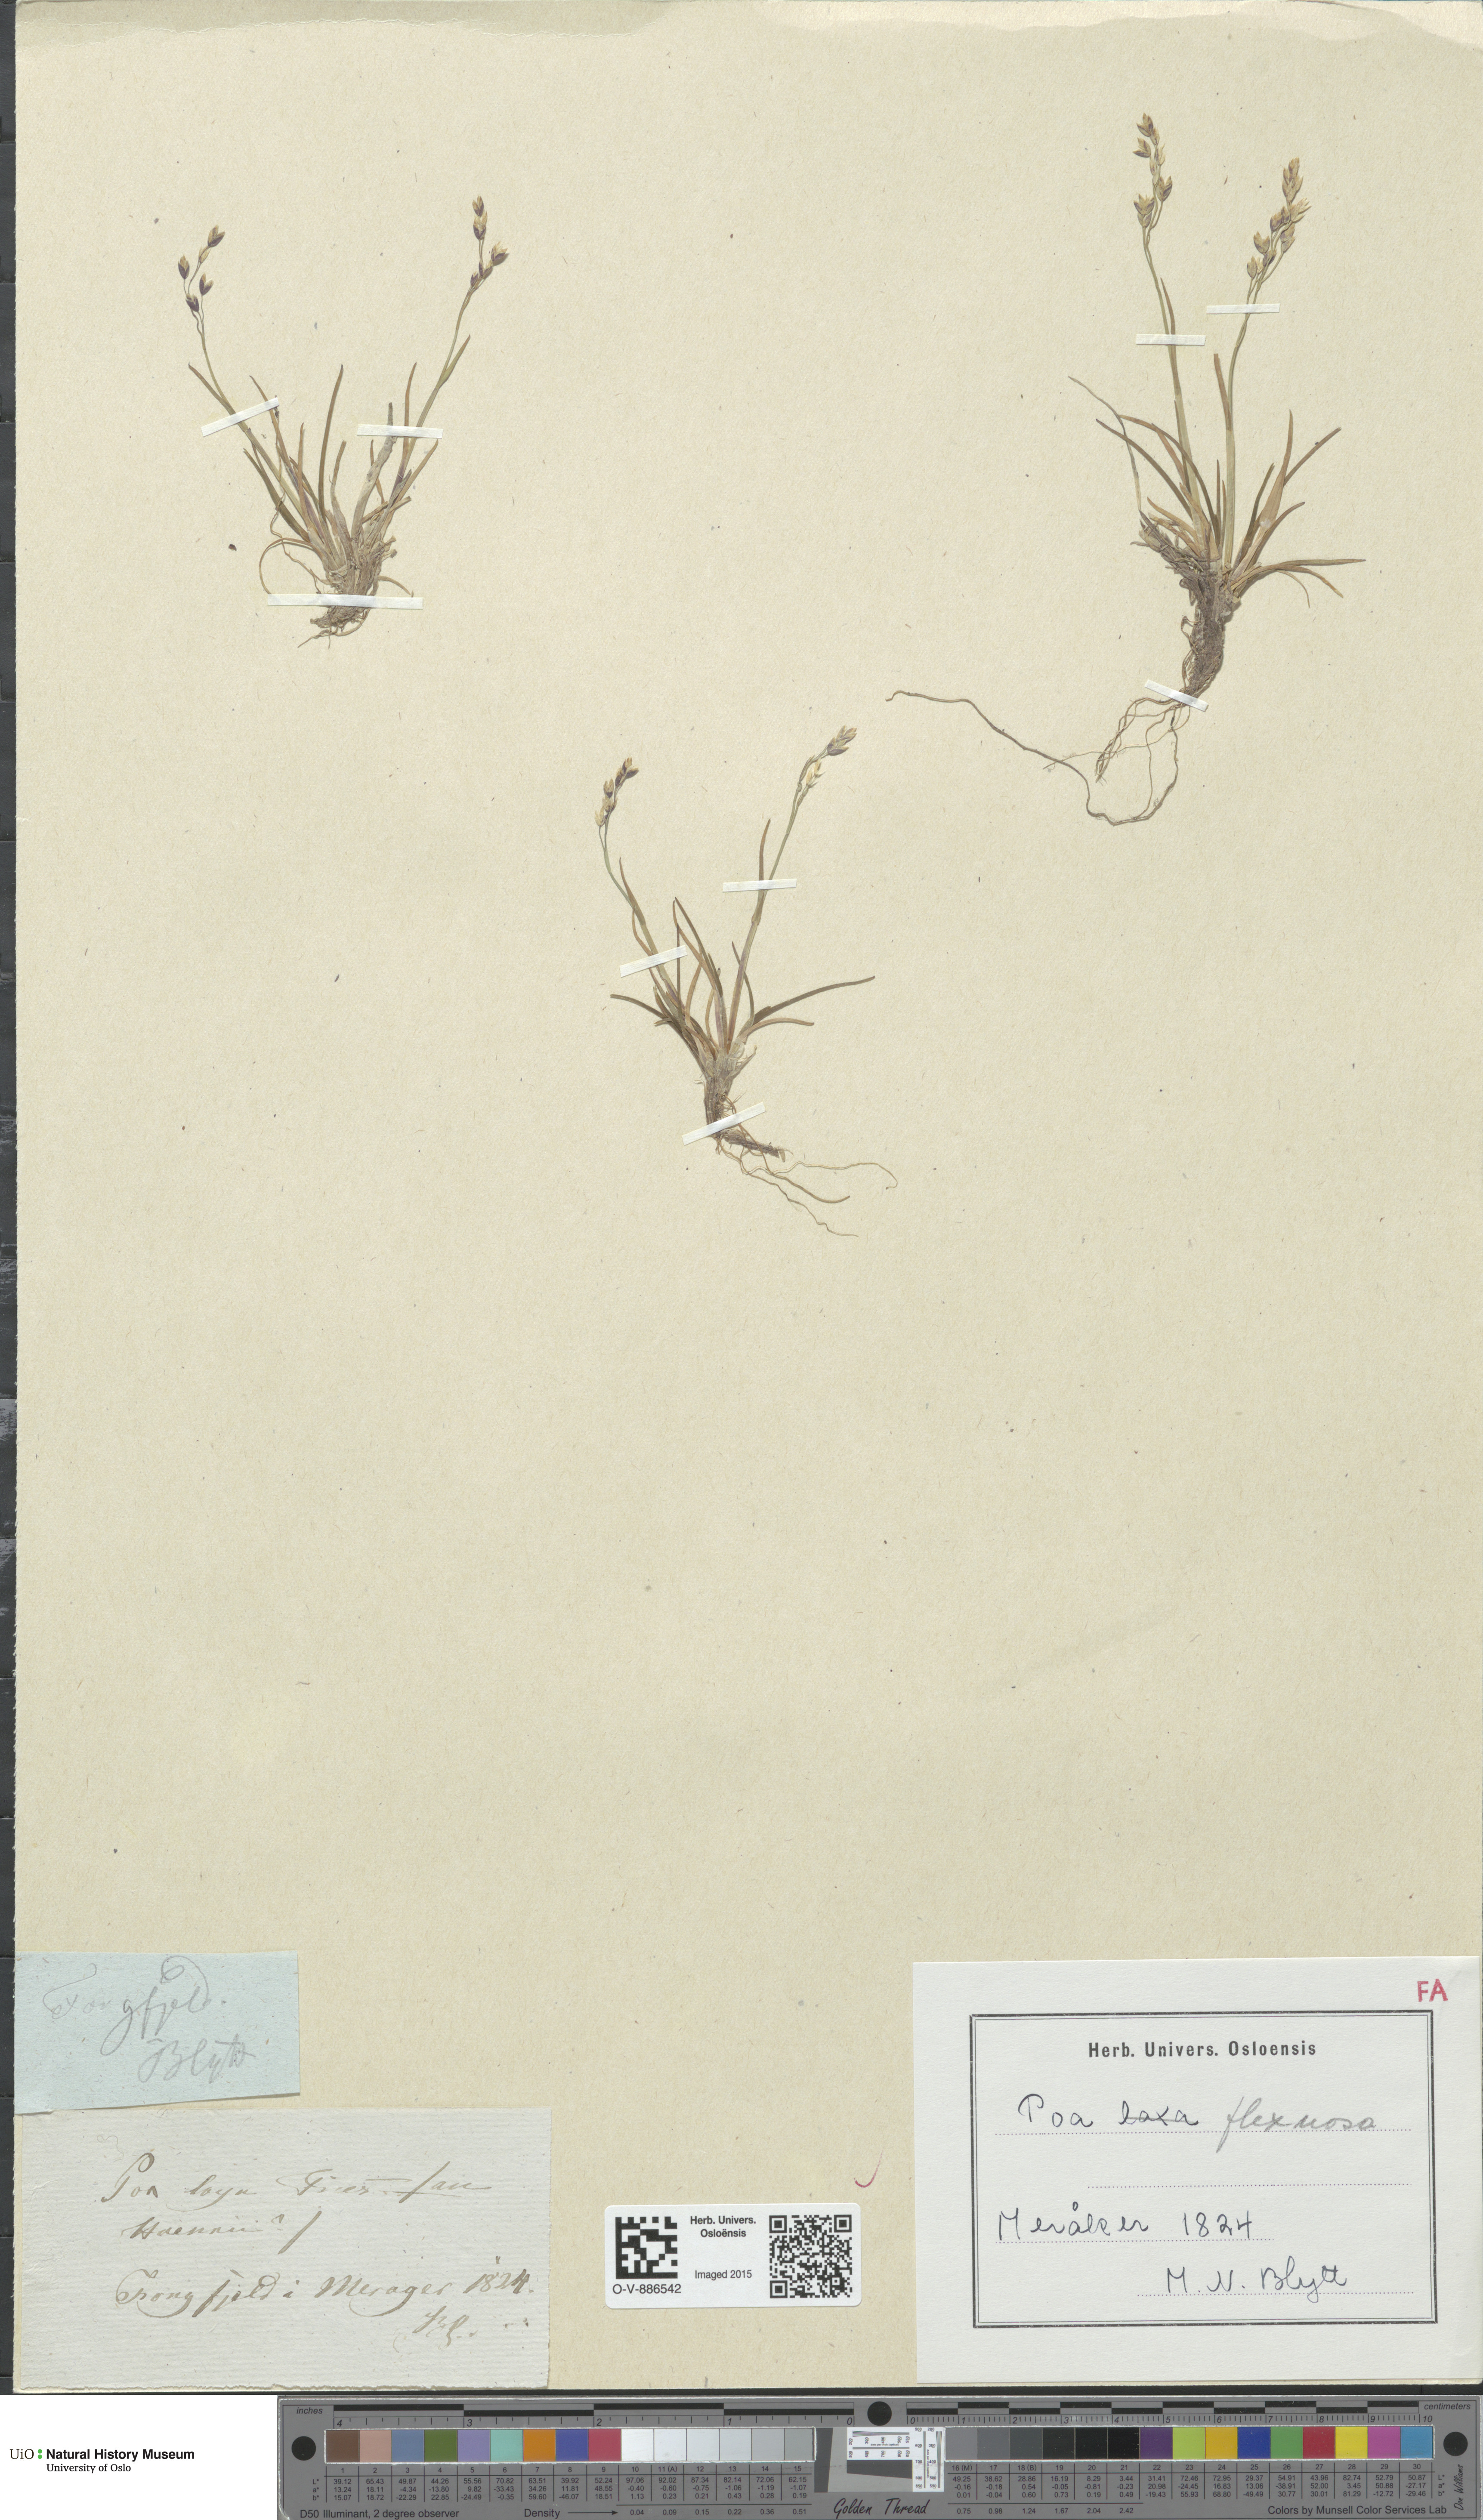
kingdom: Plantae
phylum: Tracheophyta
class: Liliopsida
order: Poales
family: Poaceae
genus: Poa
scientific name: Poa flexuosa
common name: Wavy meadow-grass
